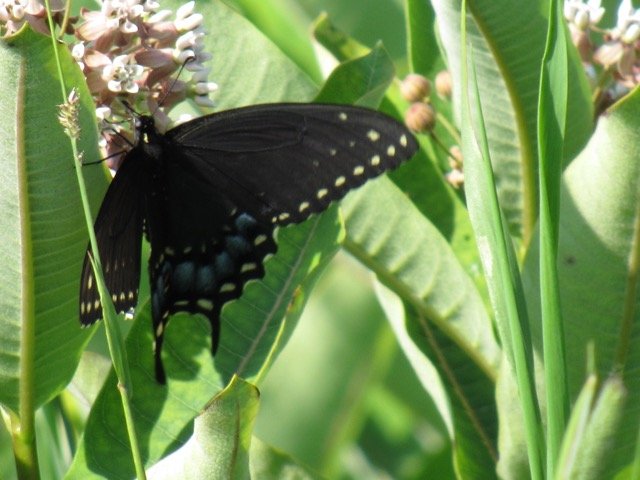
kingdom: Animalia
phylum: Arthropoda
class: Insecta
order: Lepidoptera
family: Papilionidae
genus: Papilio
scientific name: Papilio polyxenes
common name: Black Swallowtail
